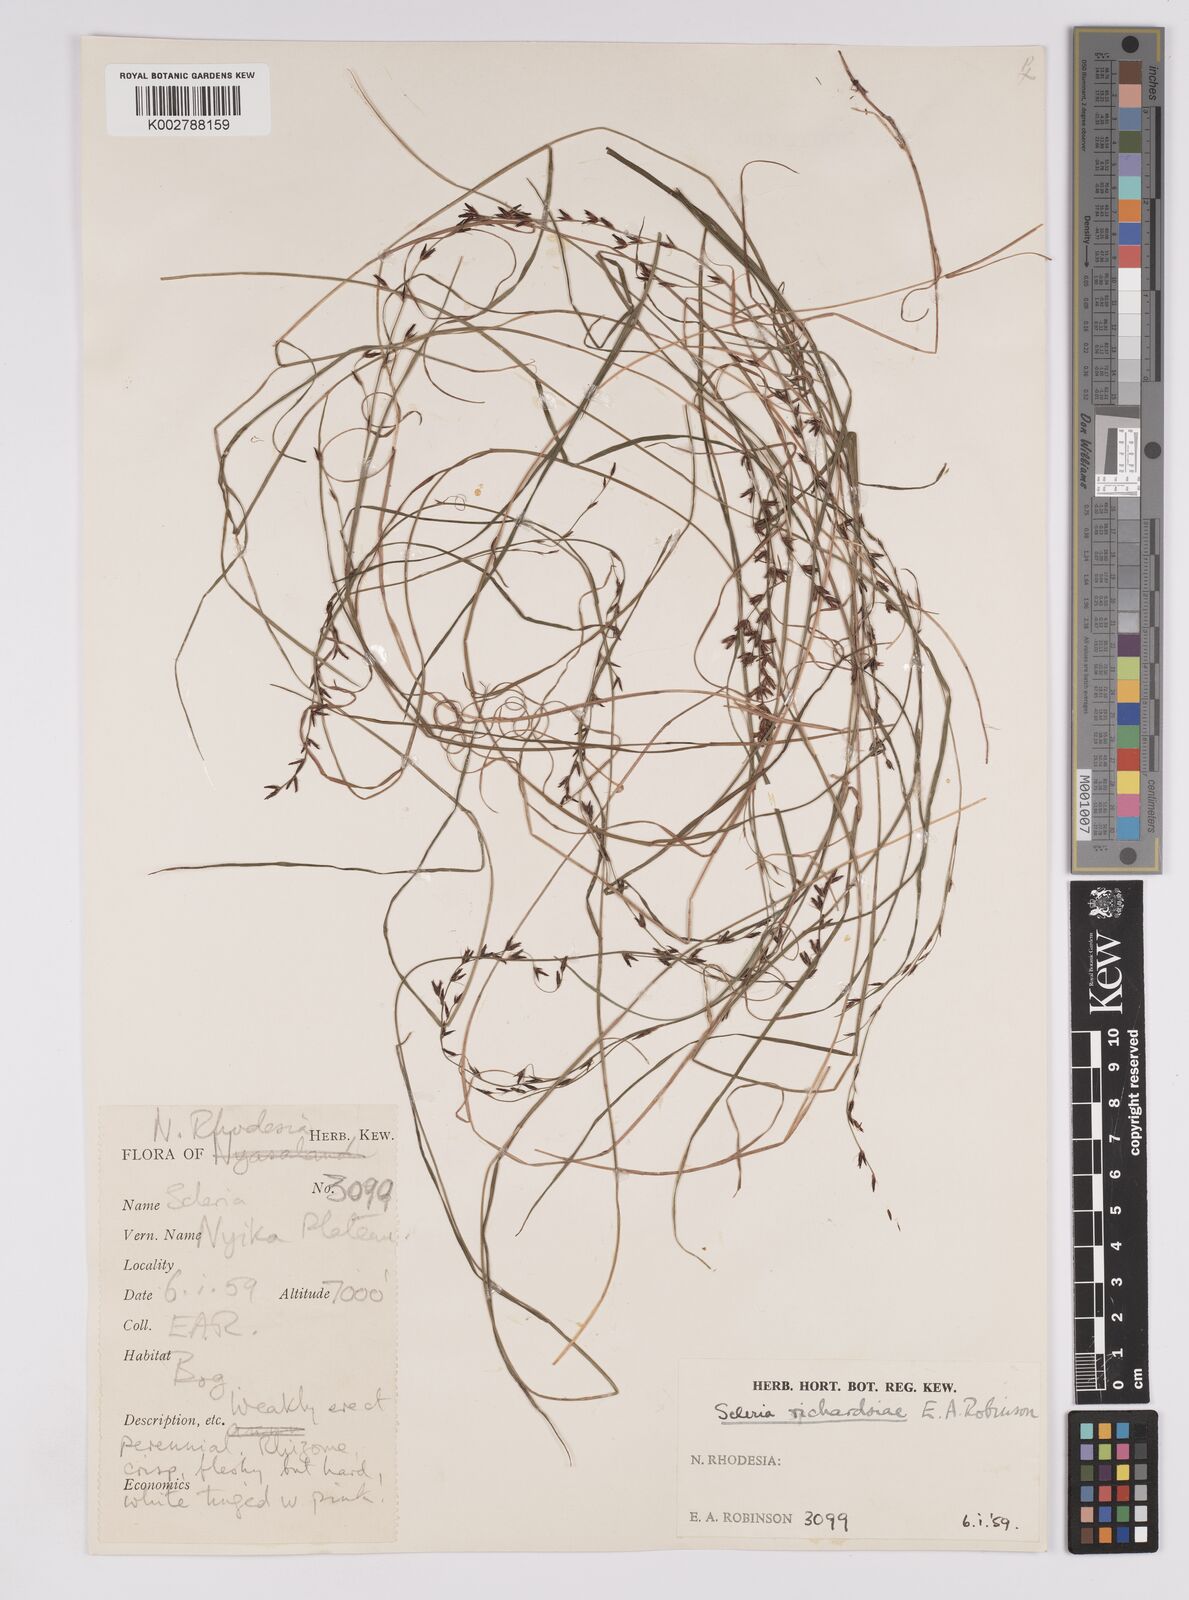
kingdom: Plantae
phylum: Tracheophyta
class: Liliopsida
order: Poales
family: Cyperaceae
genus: Scleria
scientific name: Scleria richardsiae
